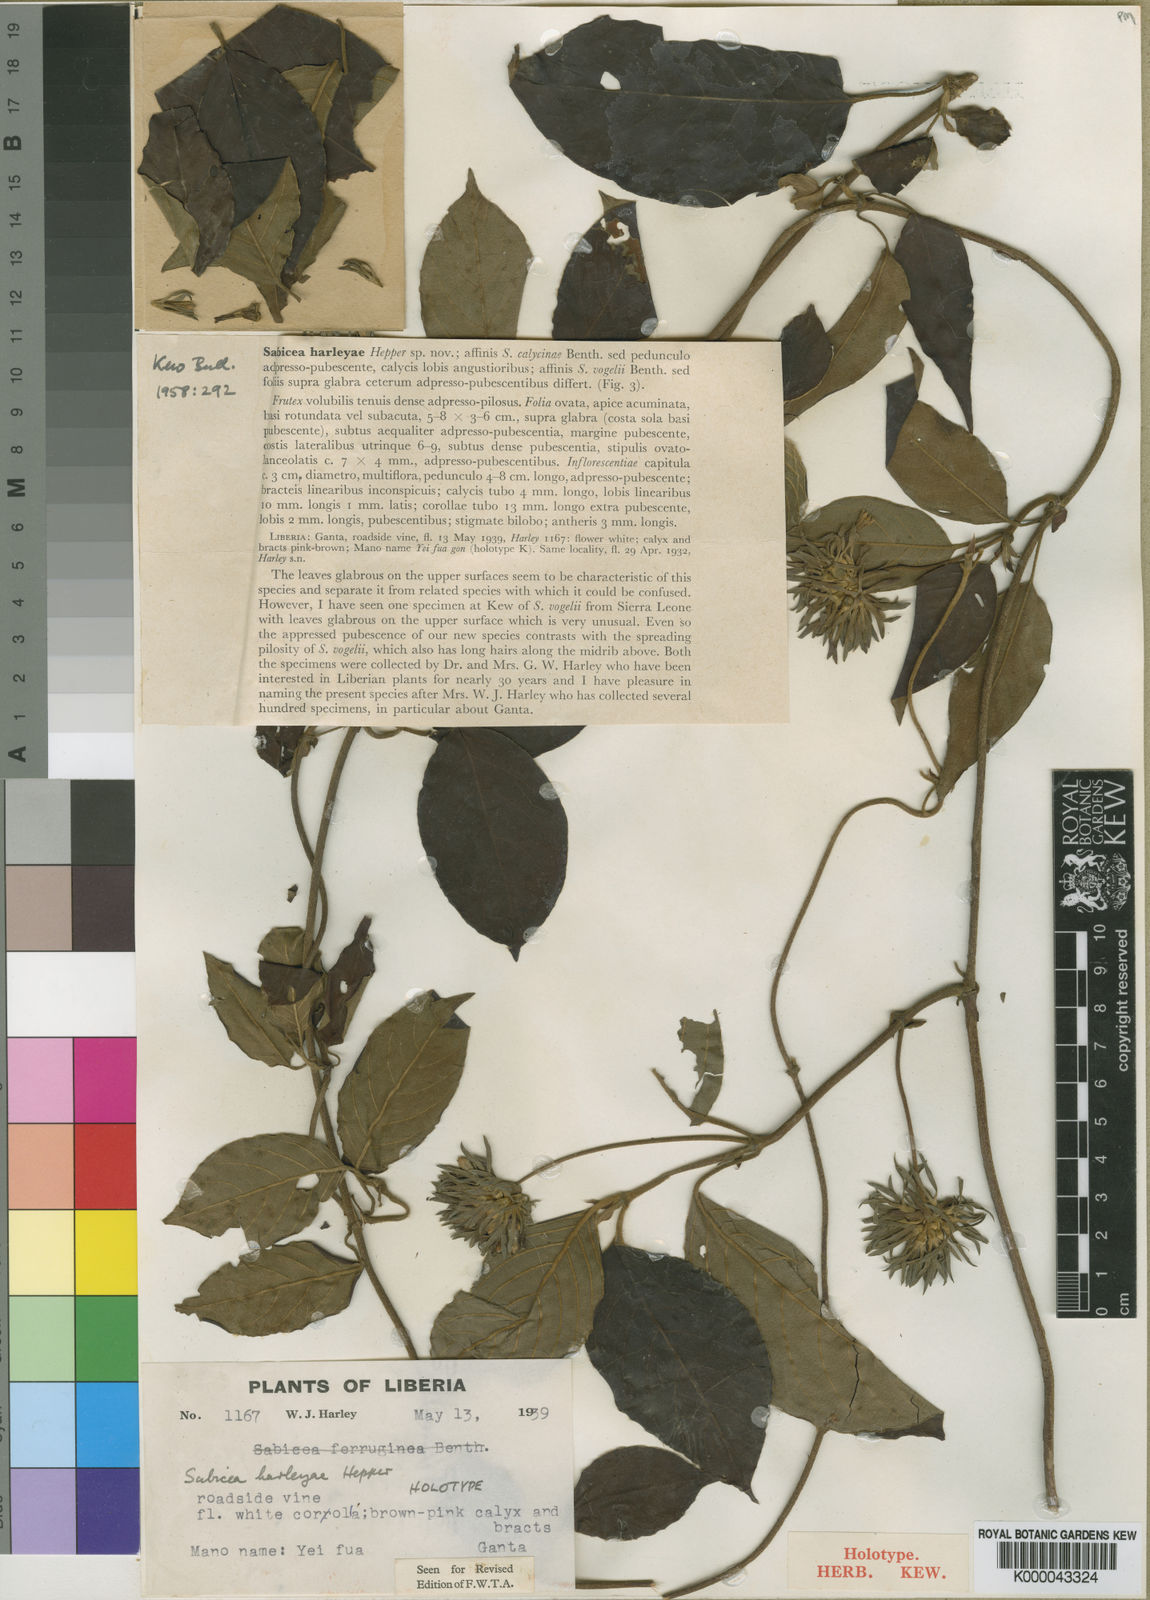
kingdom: Plantae
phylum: Tracheophyta
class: Magnoliopsida
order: Gentianales
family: Rubiaceae
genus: Sabicea
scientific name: Sabicea harleyae
